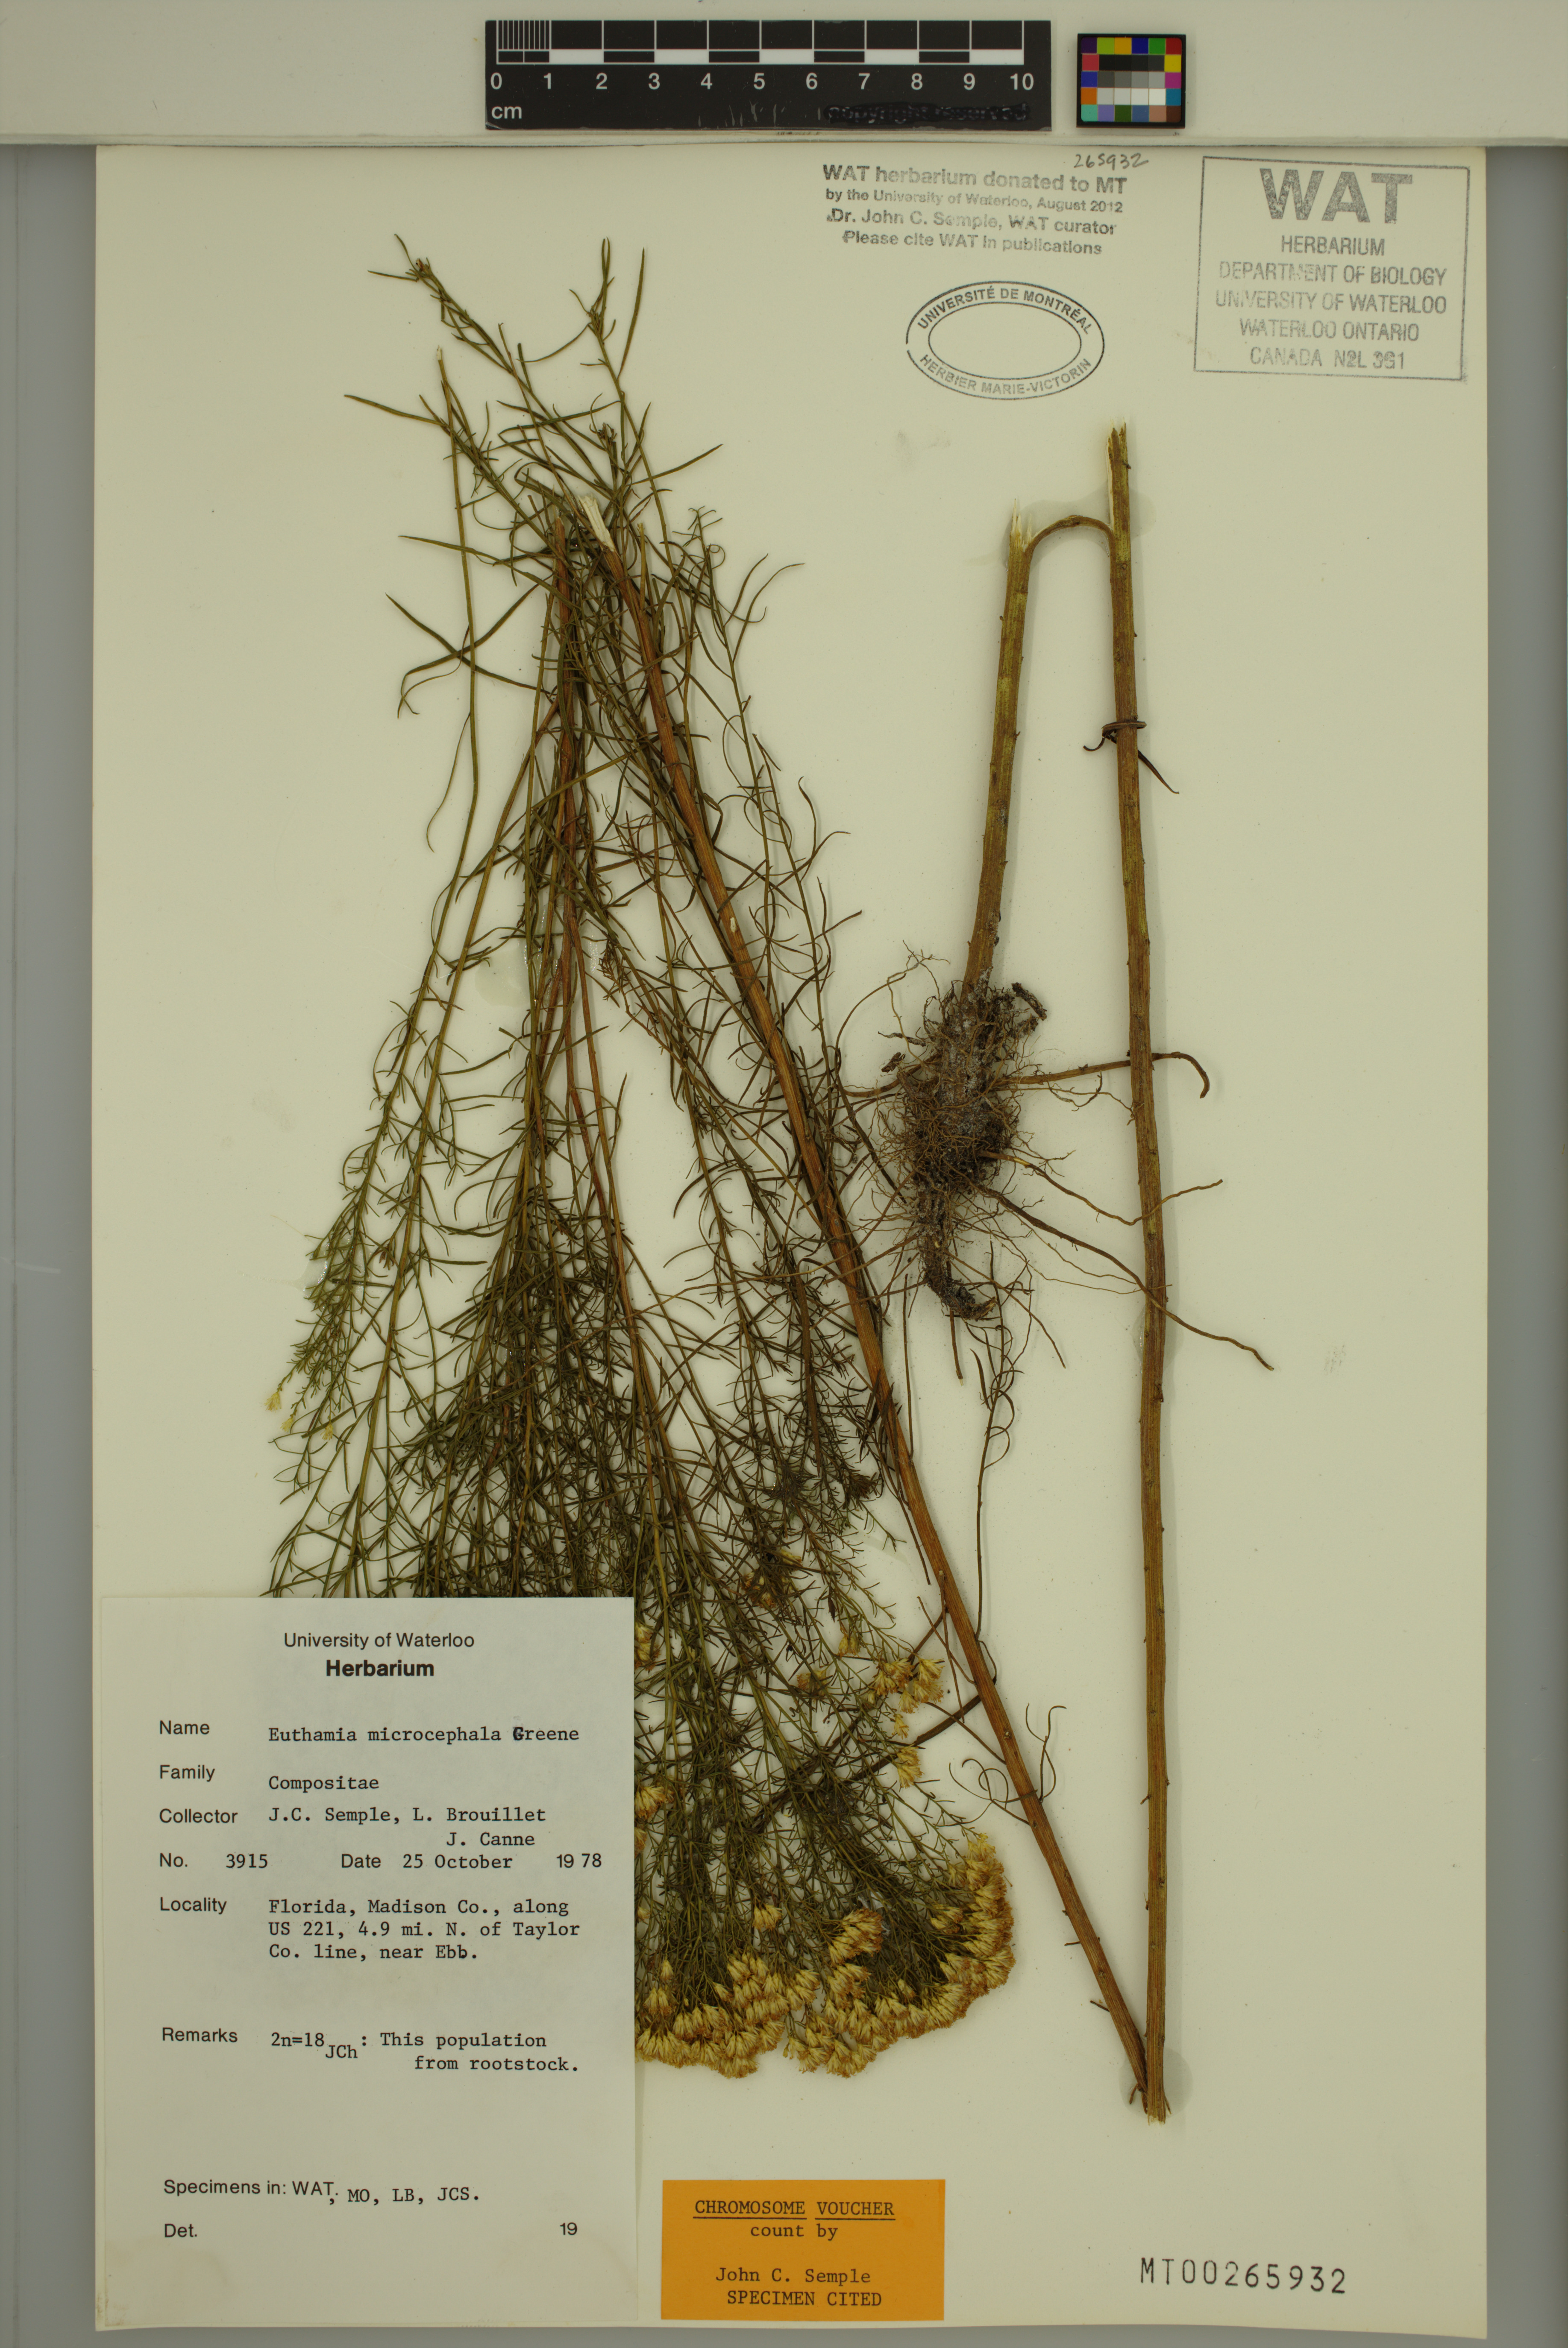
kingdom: Plantae
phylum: Tracheophyta
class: Magnoliopsida
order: Asterales
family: Asteraceae
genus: Euthamia
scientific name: Euthamia caroliniana
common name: Coastal plain goldentop
